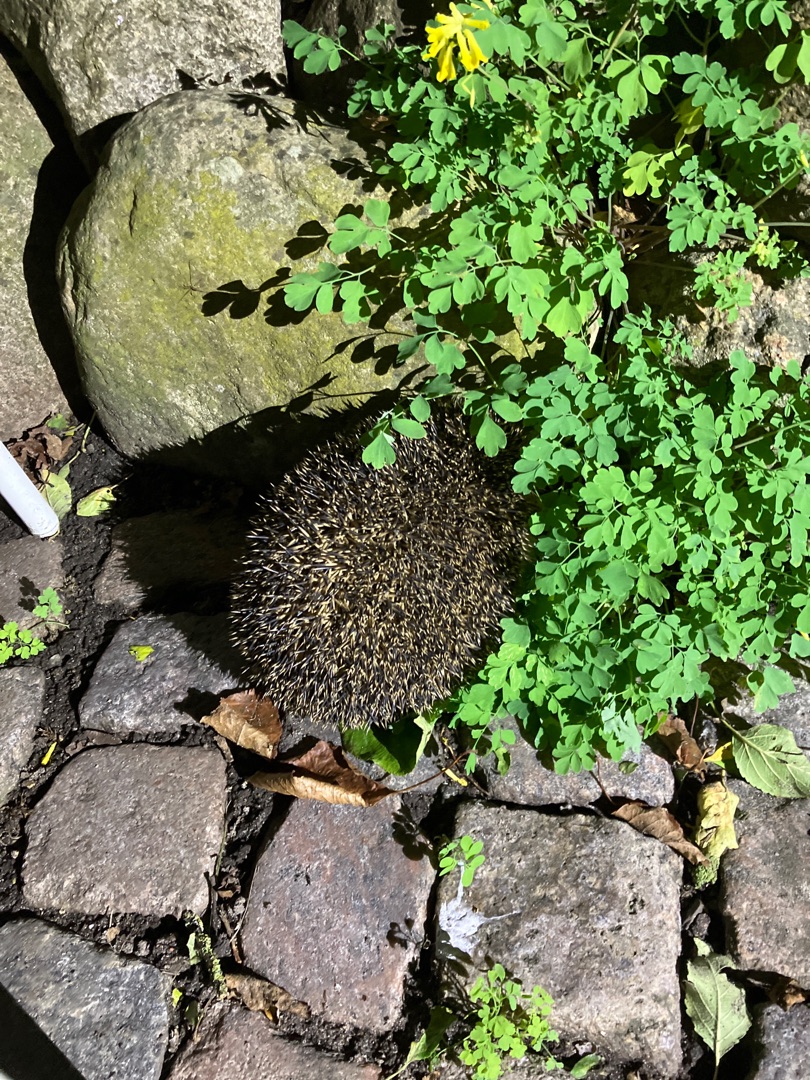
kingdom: Animalia
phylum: Chordata
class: Mammalia
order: Erinaceomorpha
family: Erinaceidae
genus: Erinaceus
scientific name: Erinaceus europaeus
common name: Pindsvin
